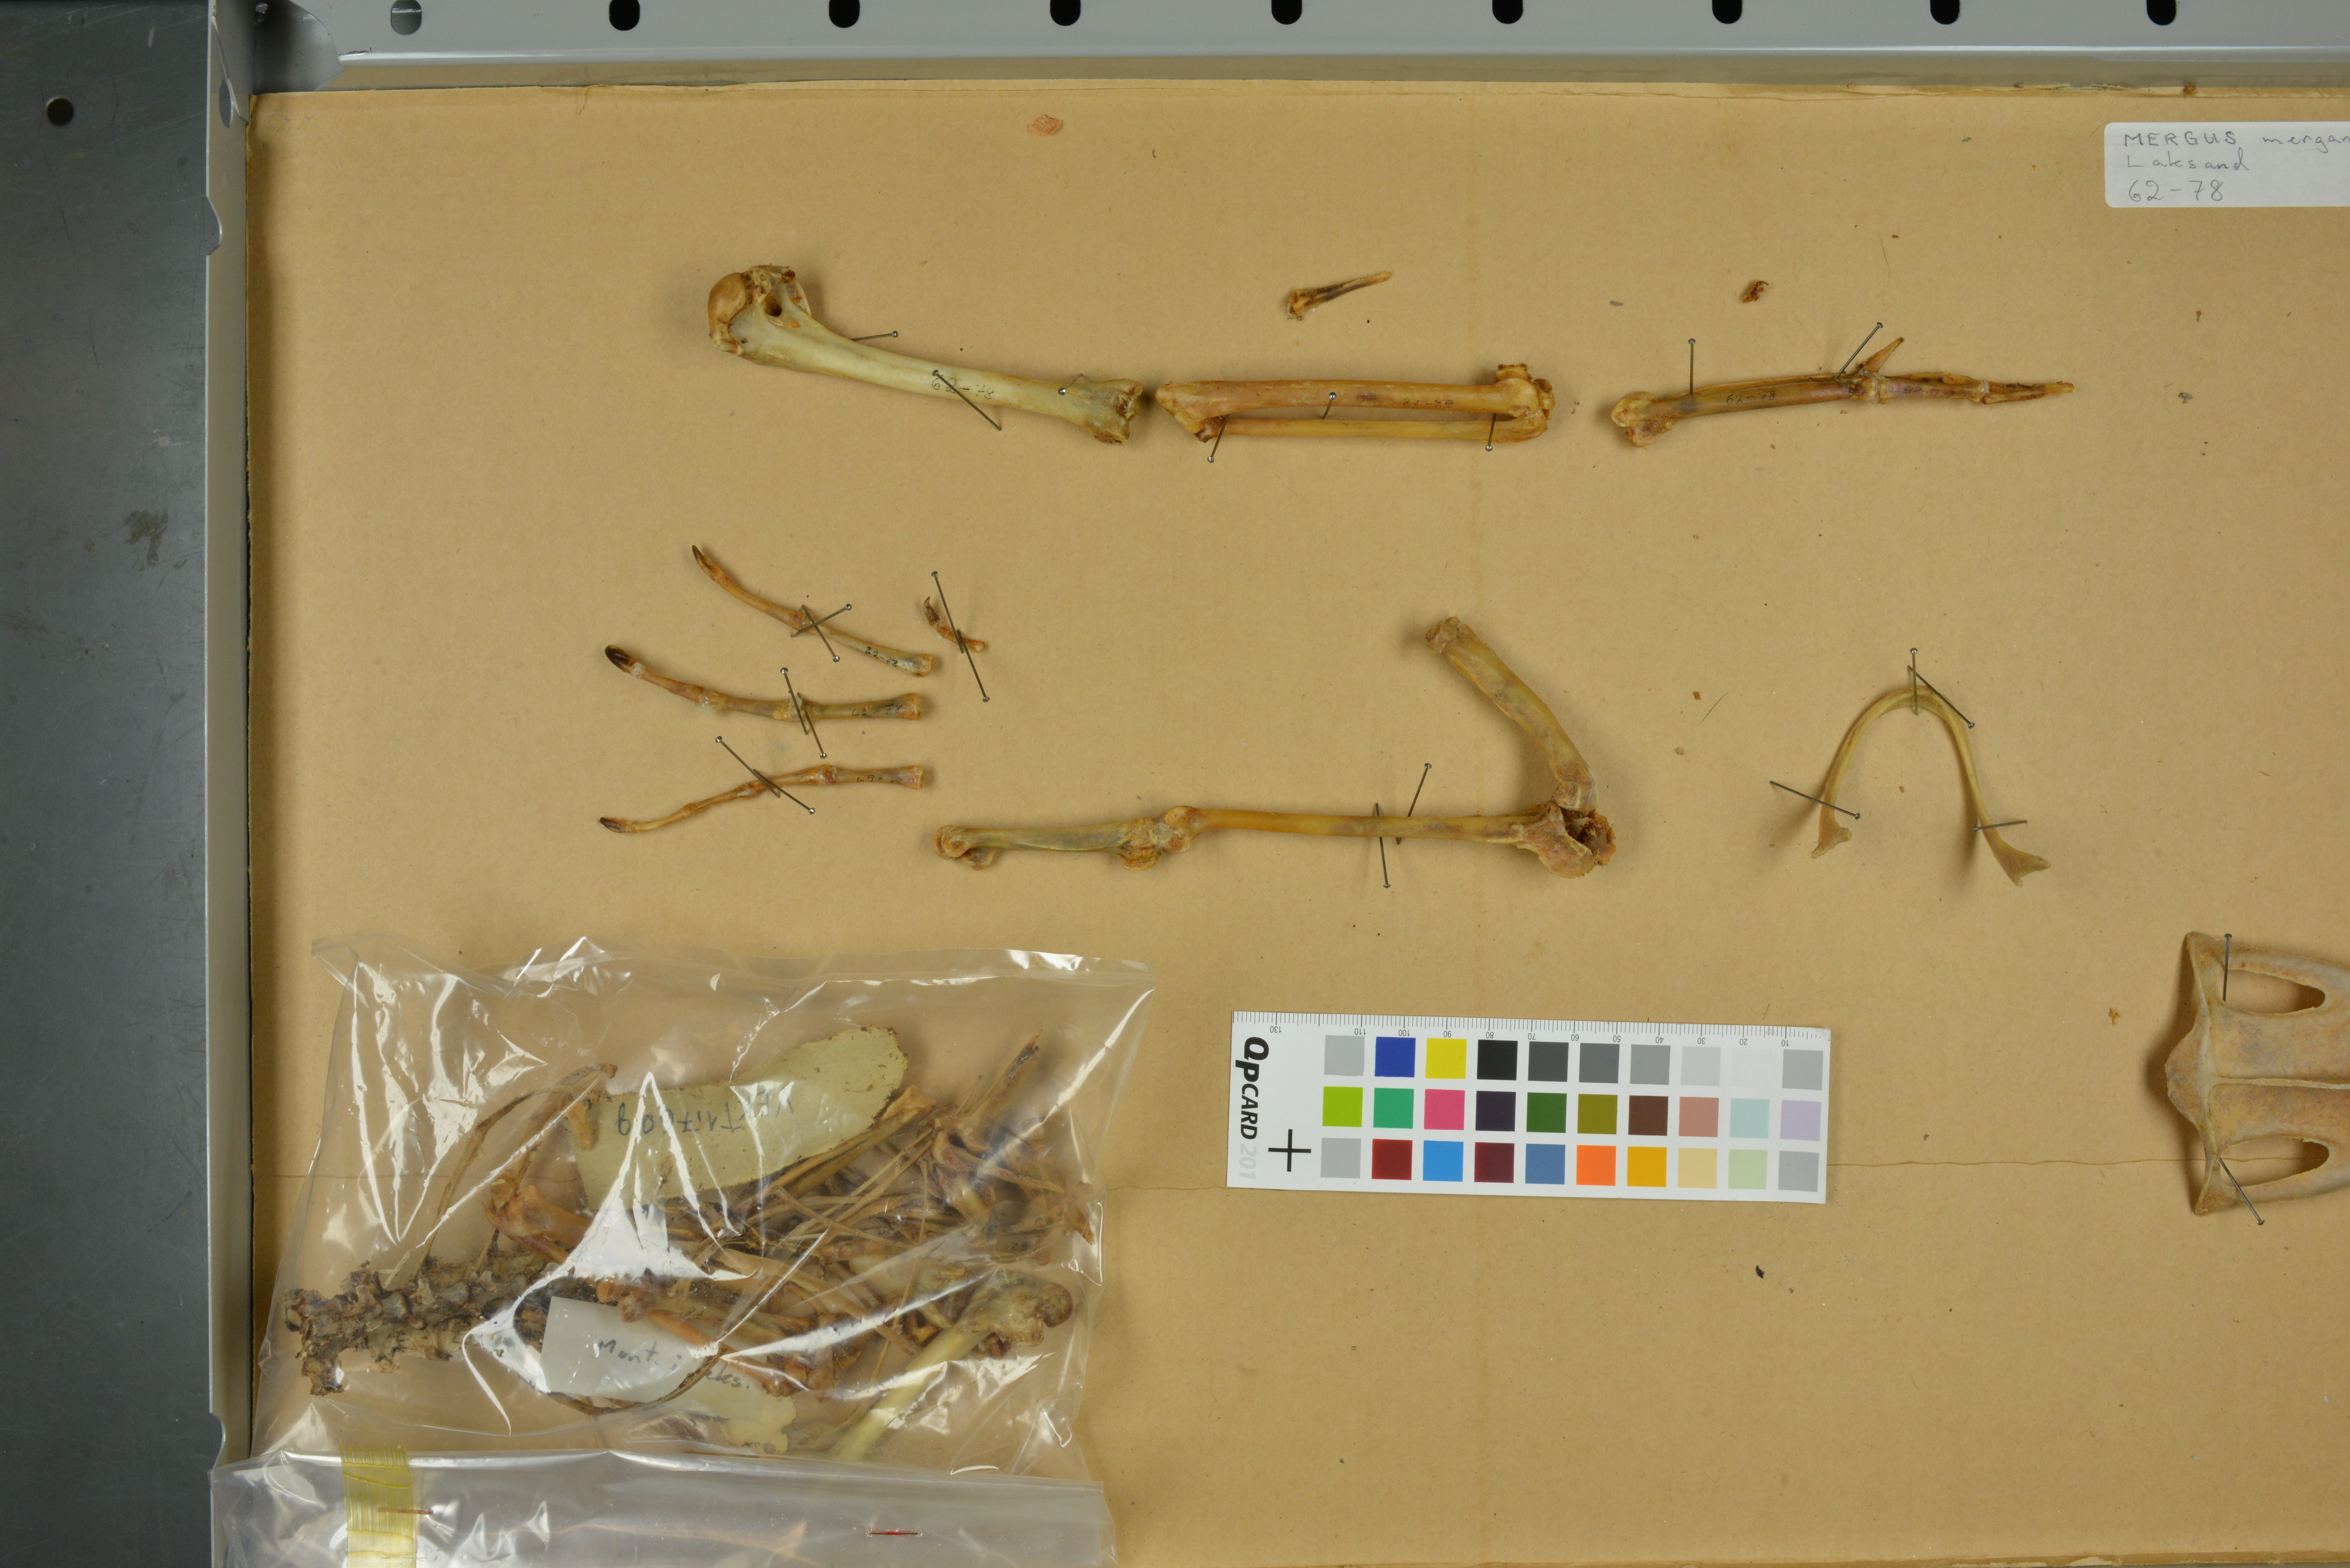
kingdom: Animalia
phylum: Chordata
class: Aves
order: Anseriformes
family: Anatidae
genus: Mergus
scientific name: Mergus merganser
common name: Common merganser
